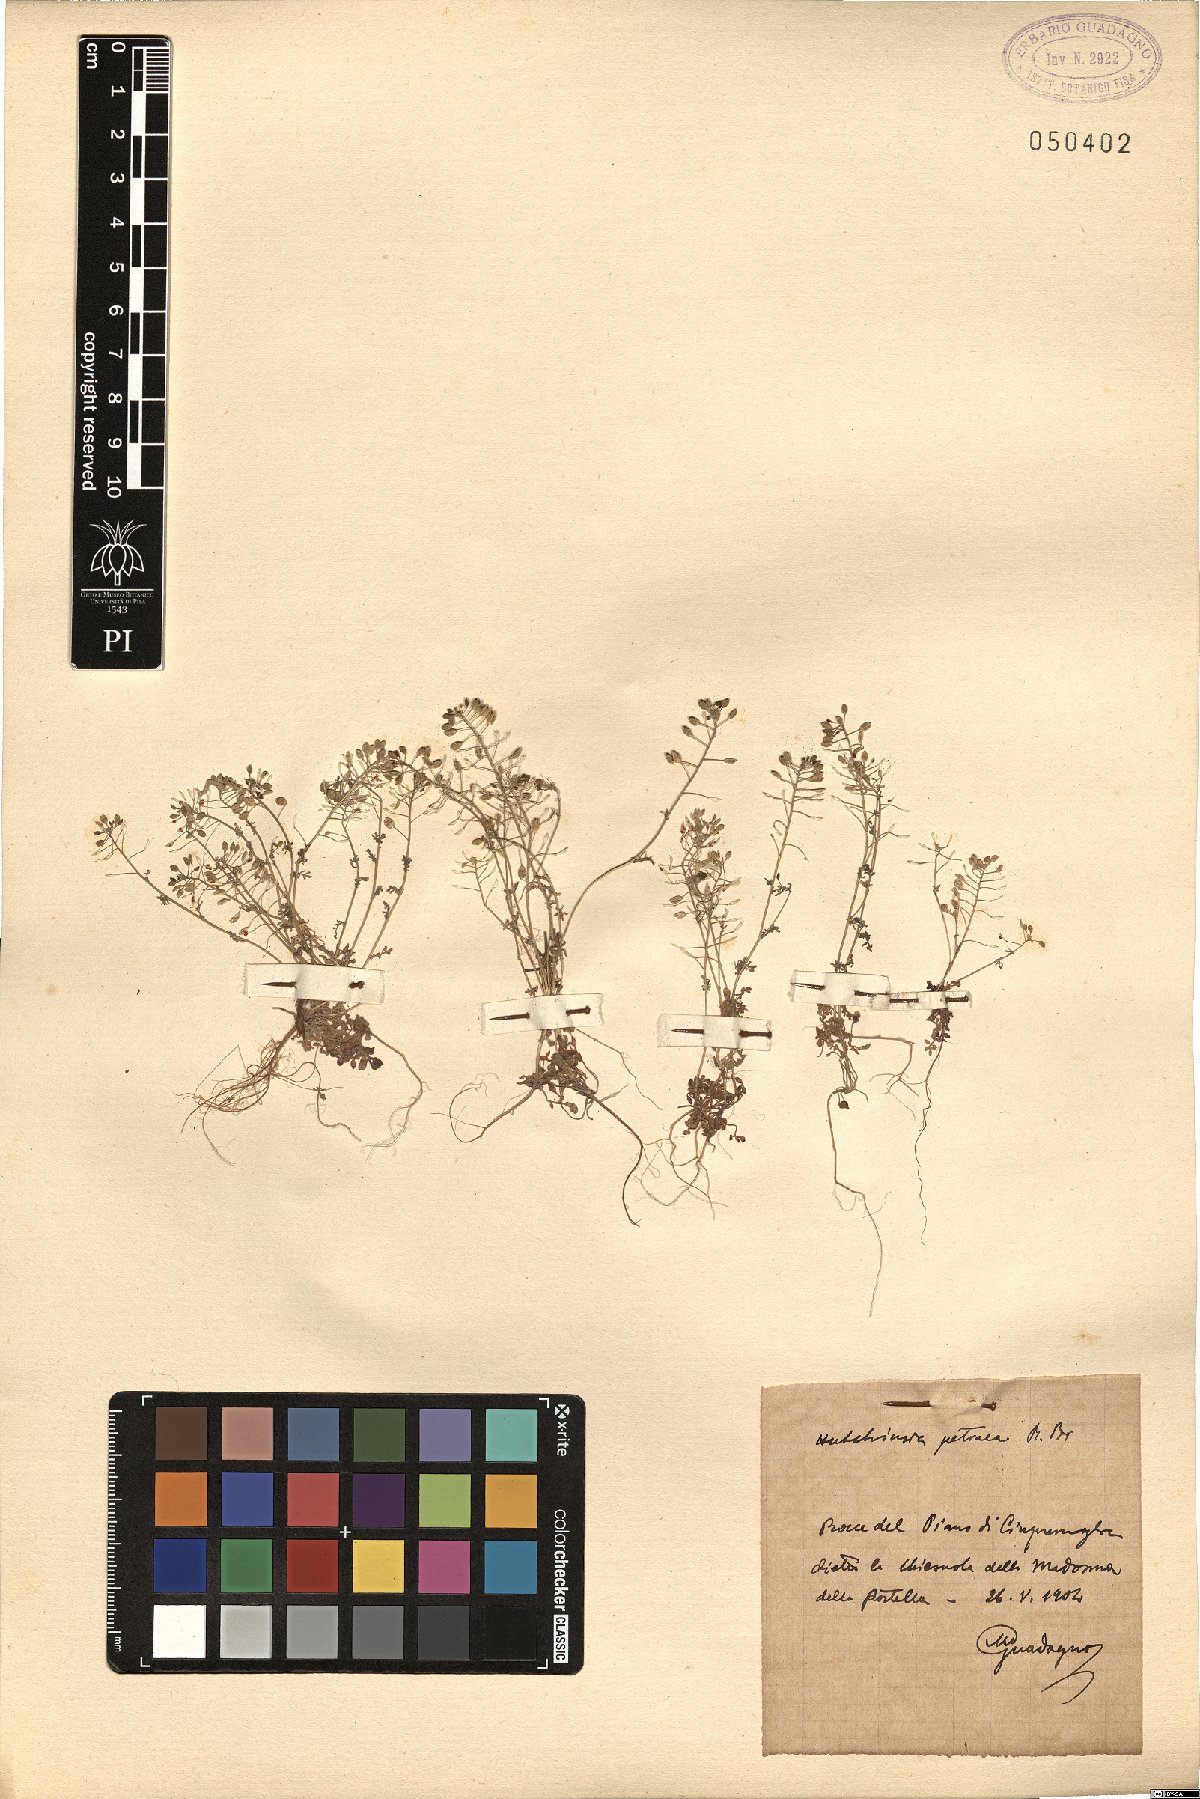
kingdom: Plantae
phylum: Tracheophyta
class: Magnoliopsida
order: Brassicales
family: Brassicaceae
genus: Hornungia
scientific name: Hornungia petraea
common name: Hutchinsia
